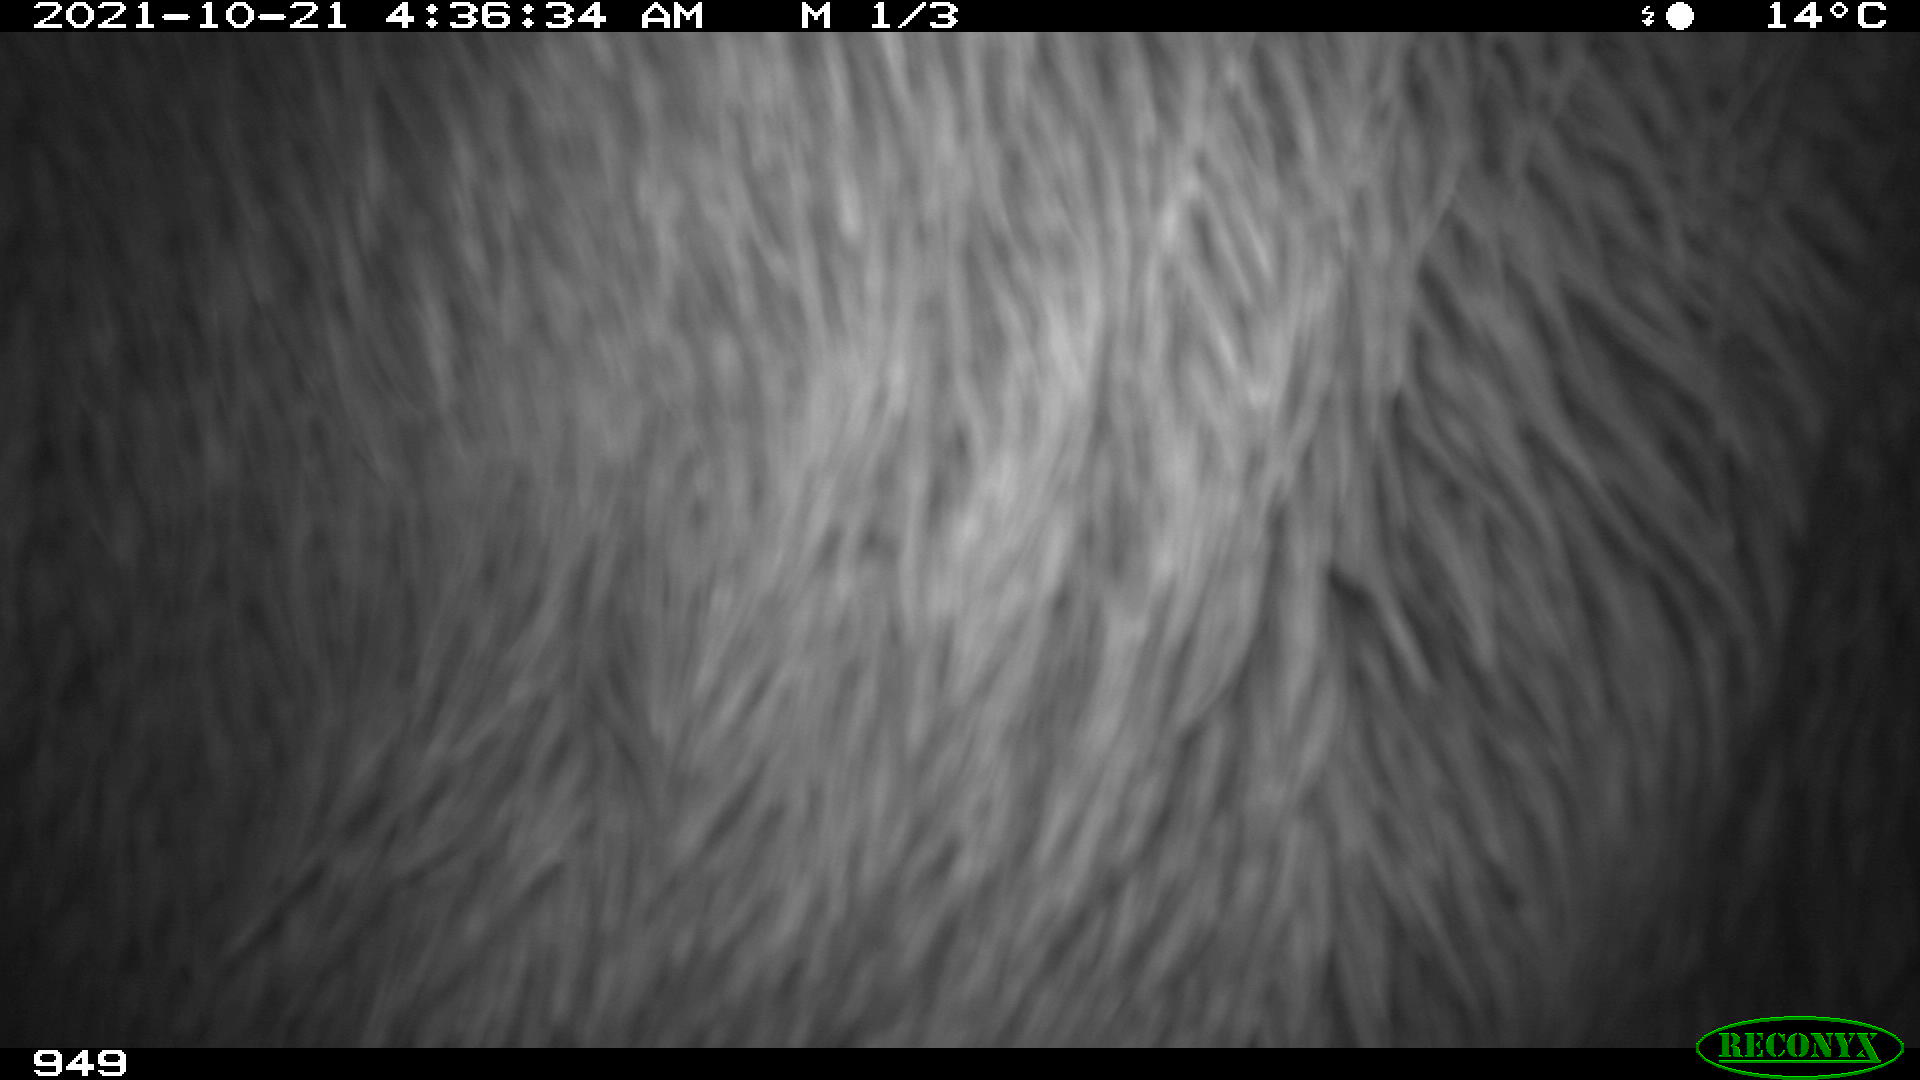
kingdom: Animalia
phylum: Chordata
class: Mammalia
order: Perissodactyla
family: Equidae
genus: Equus
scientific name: Equus caballus
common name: Horse
